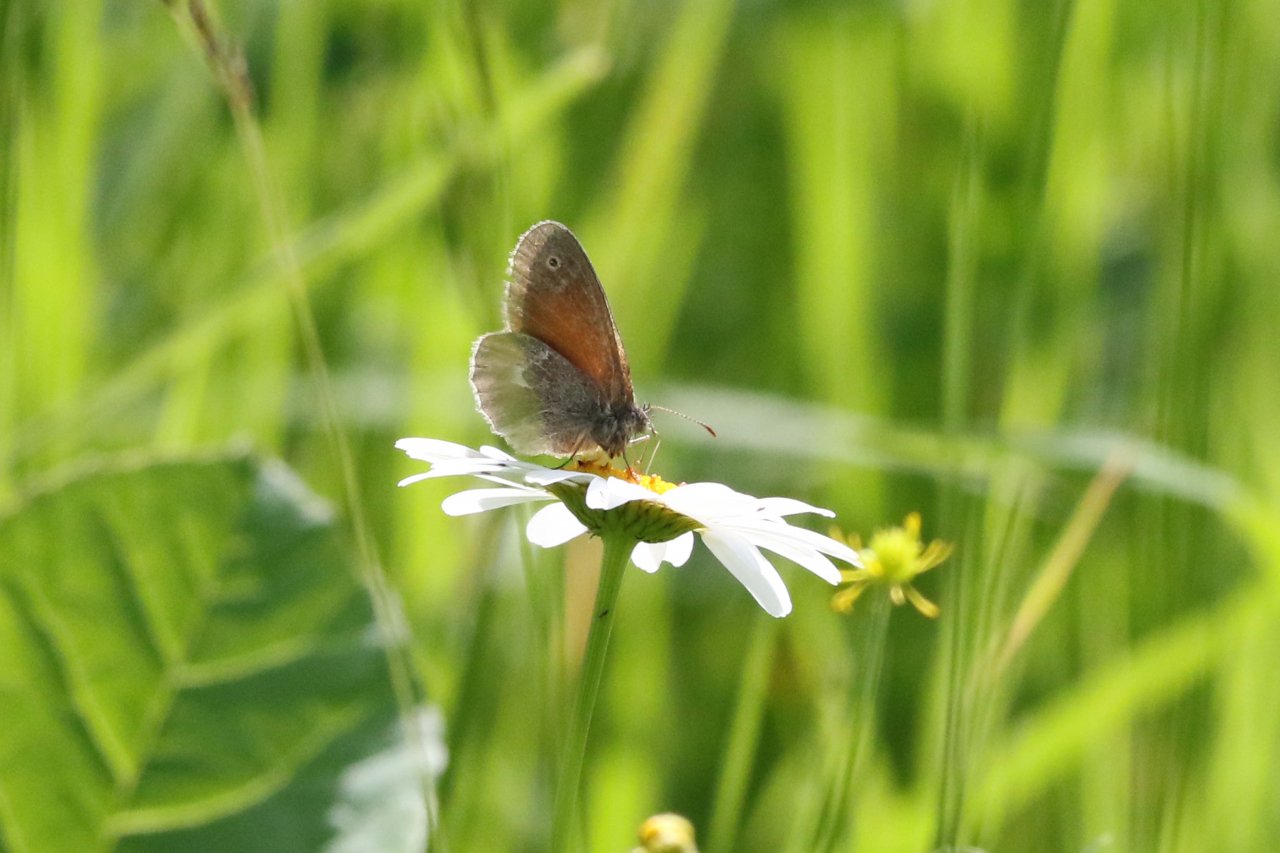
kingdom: Animalia
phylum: Arthropoda
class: Insecta
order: Lepidoptera
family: Nymphalidae
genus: Coenonympha
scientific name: Coenonympha tullia
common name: Large Heath
